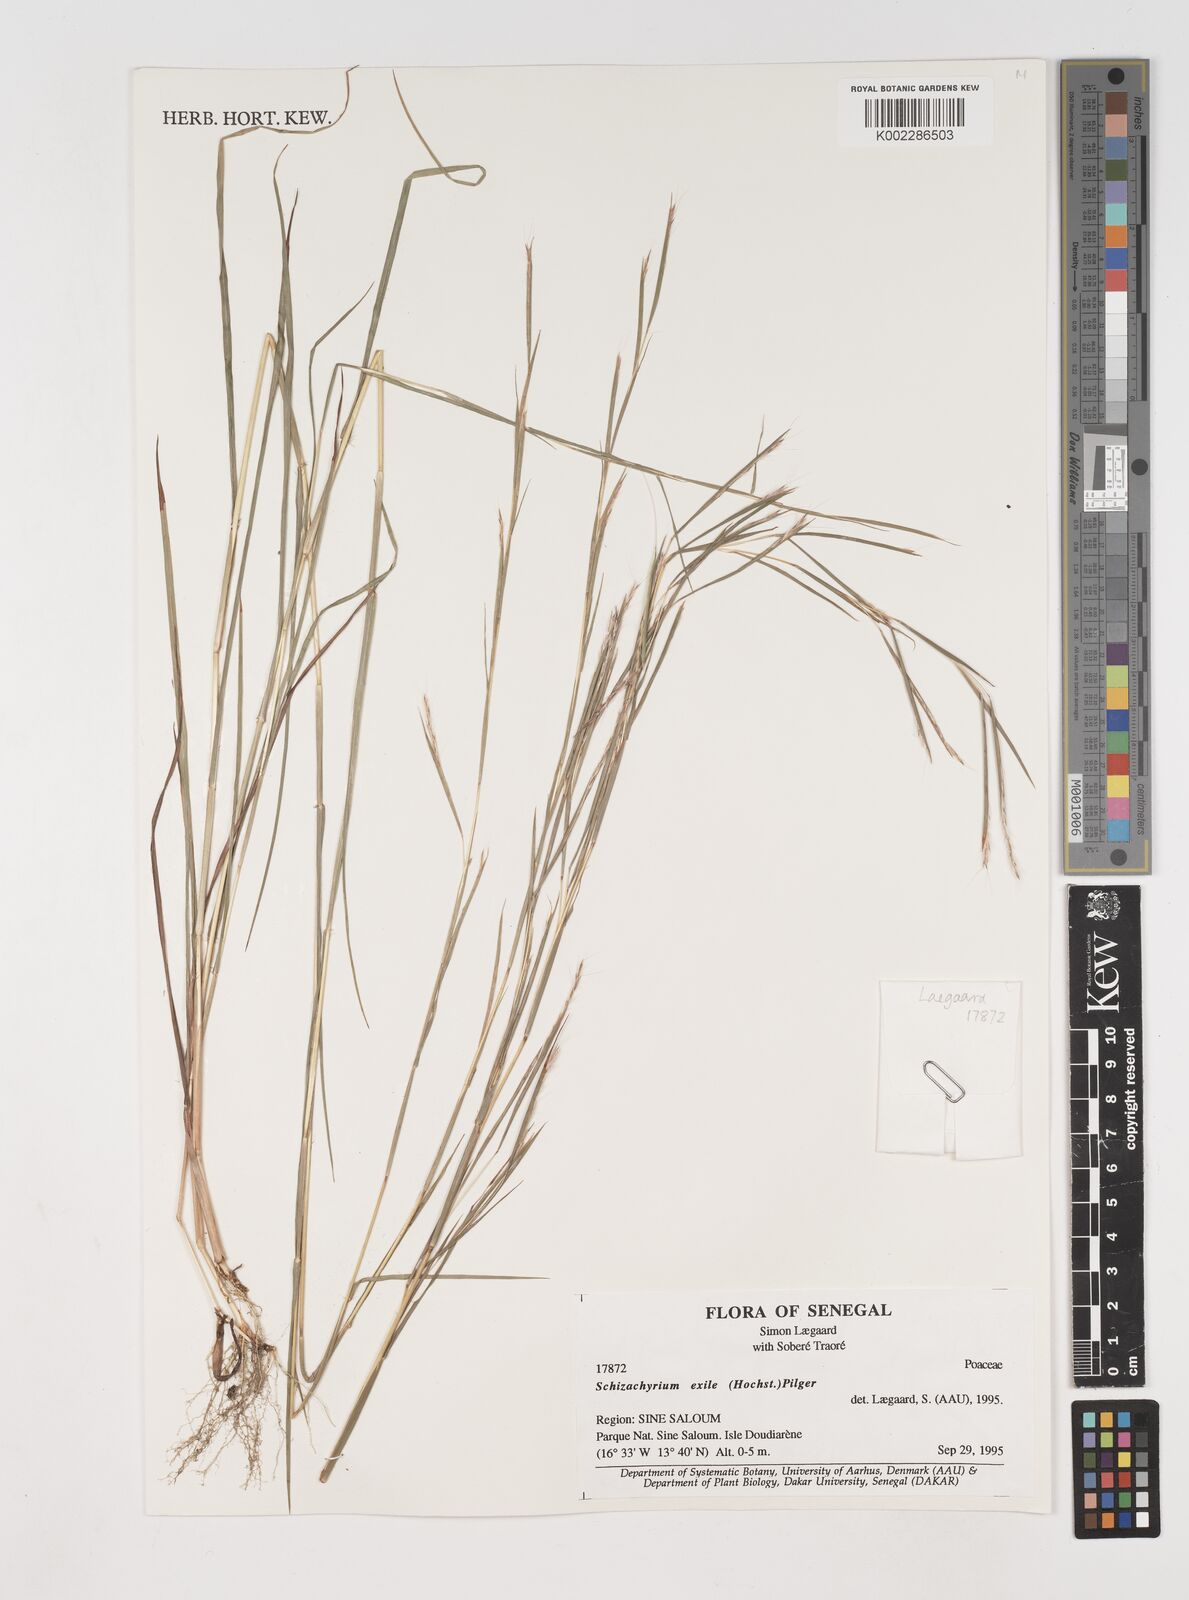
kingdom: Plantae
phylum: Tracheophyta
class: Liliopsida
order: Poales
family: Poaceae
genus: Schizachyrium
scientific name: Schizachyrium exile
